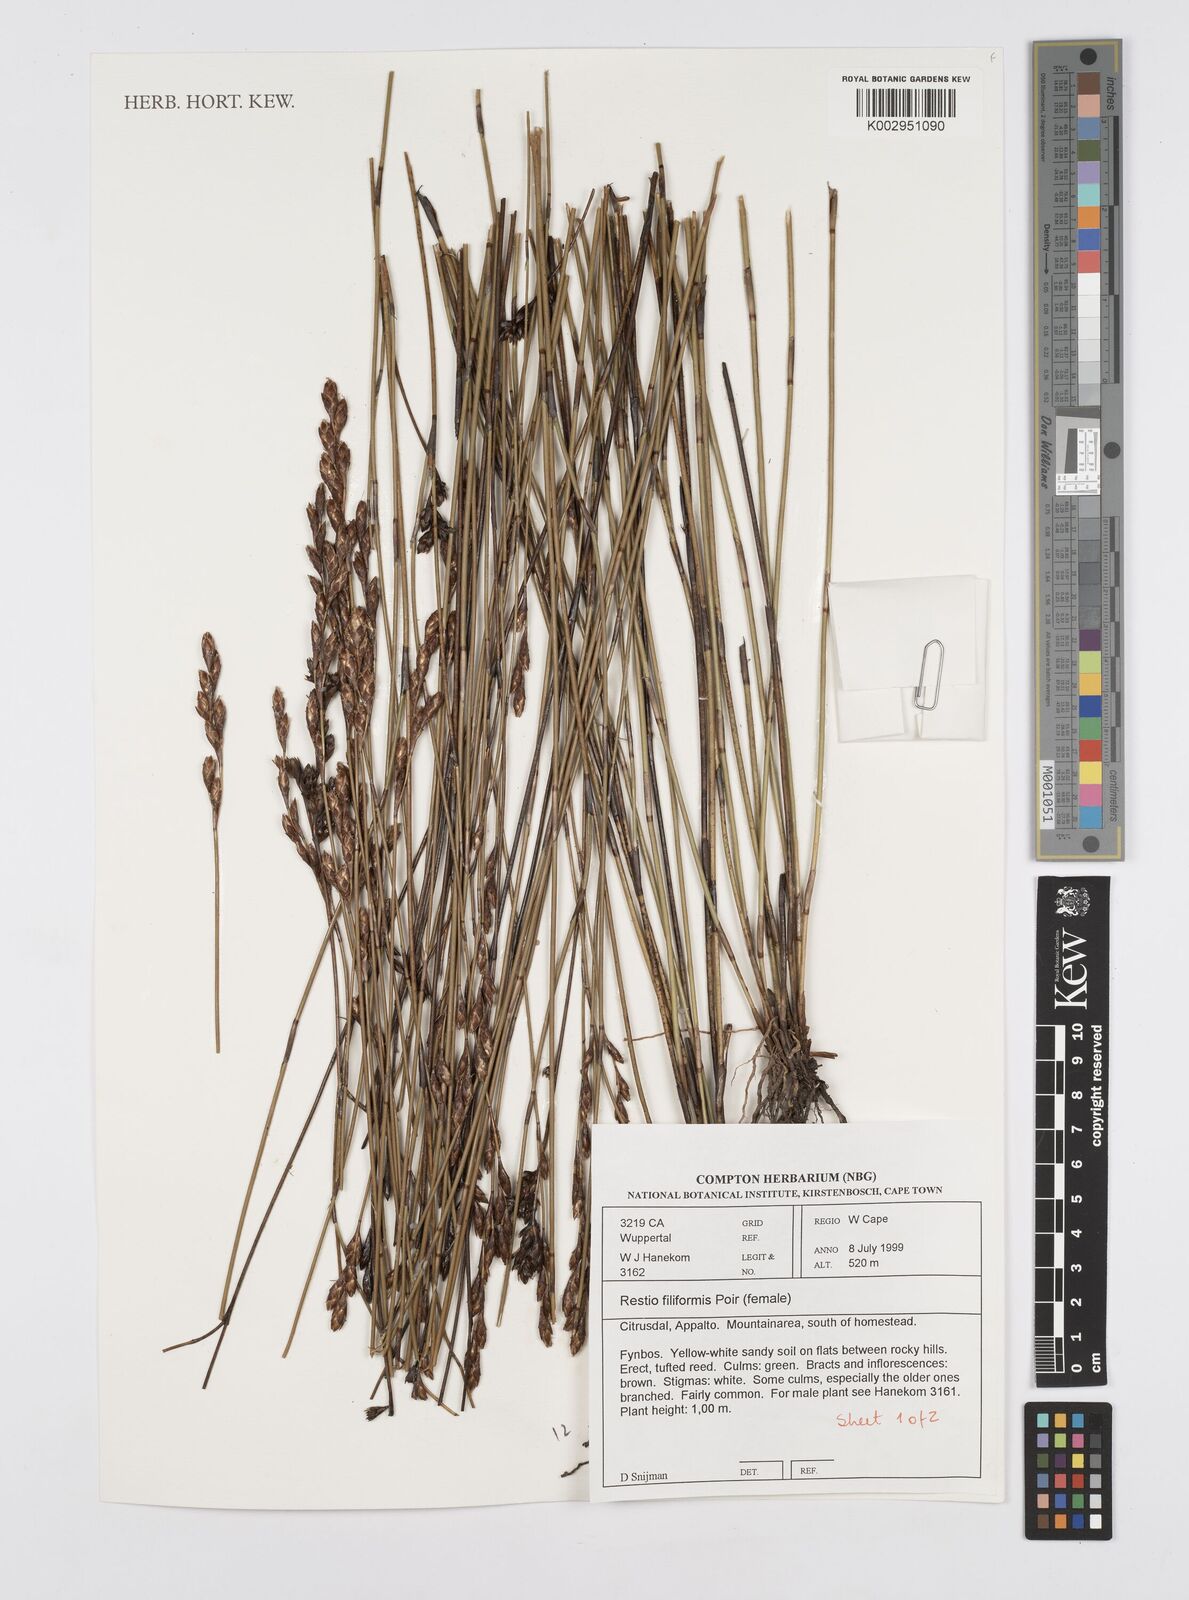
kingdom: Plantae
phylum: Tracheophyta
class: Liliopsida
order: Poales
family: Restionaceae
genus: Restio
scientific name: Restio filiformis
